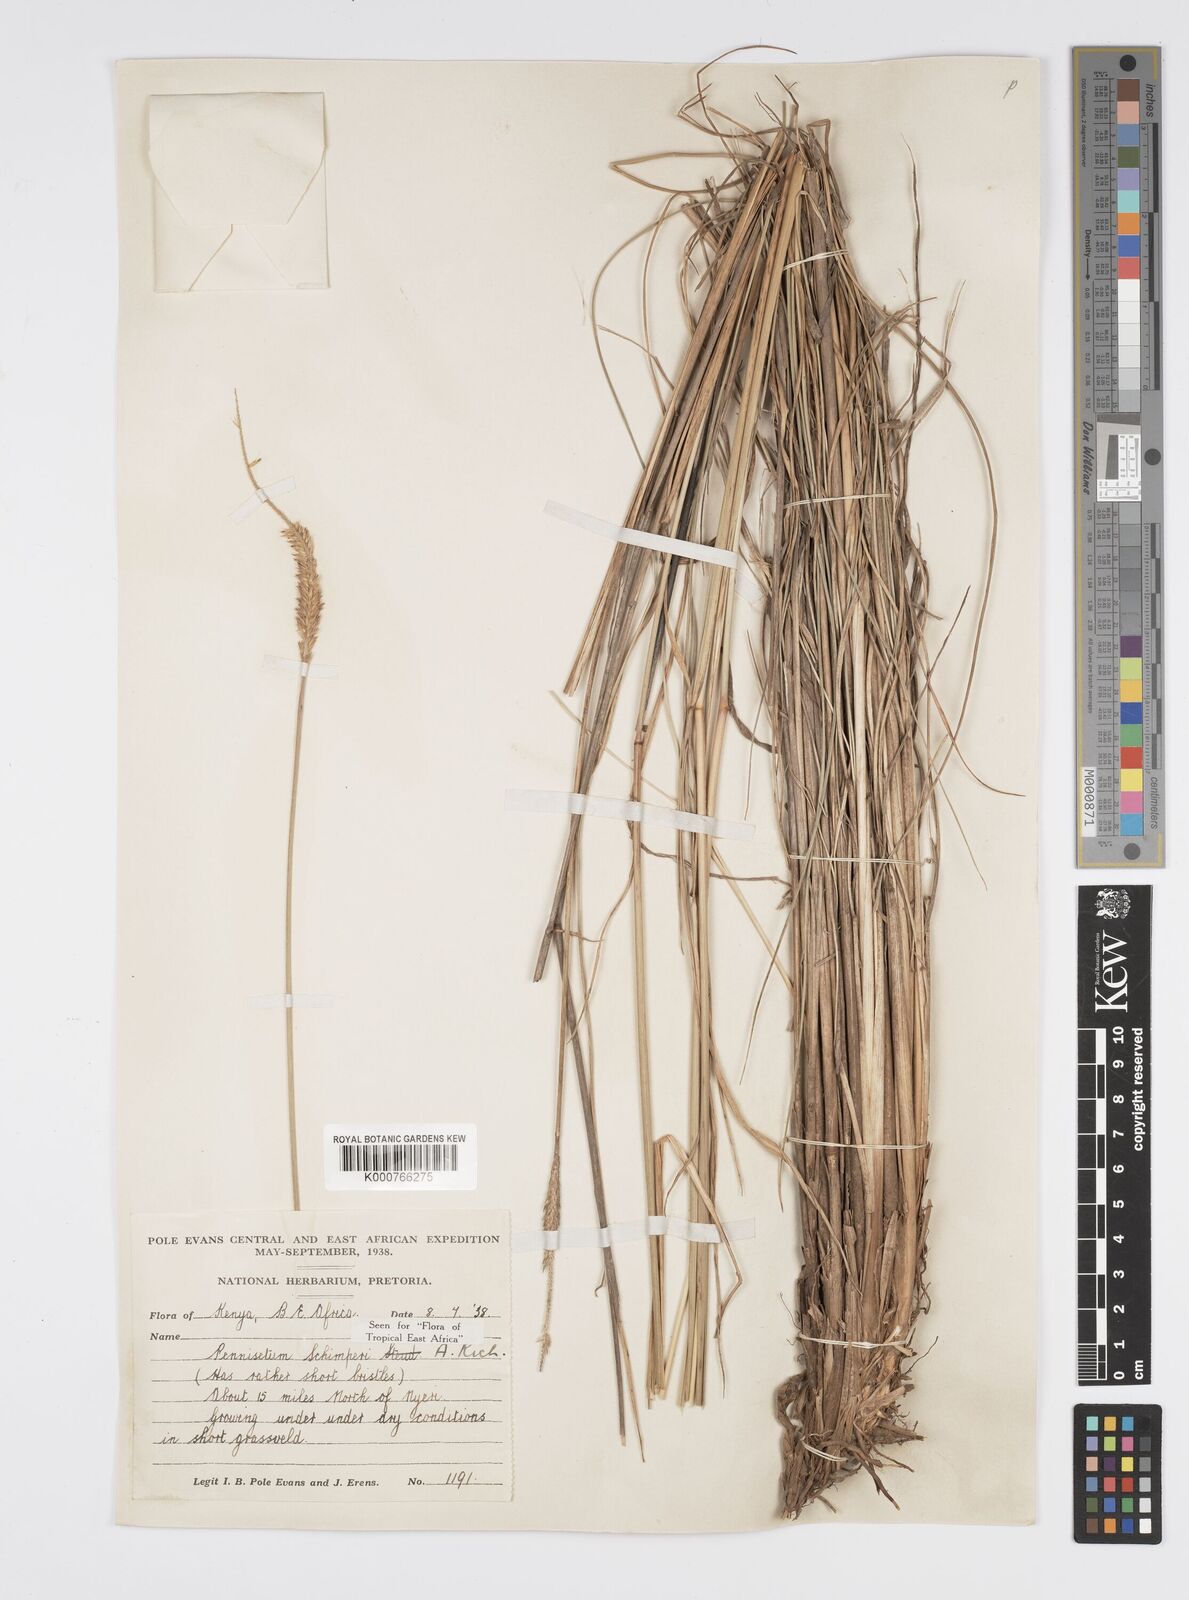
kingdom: Plantae
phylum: Tracheophyta
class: Liliopsida
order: Poales
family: Poaceae
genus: Cenchrus
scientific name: Cenchrus sphacelatus
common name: Bulgras
